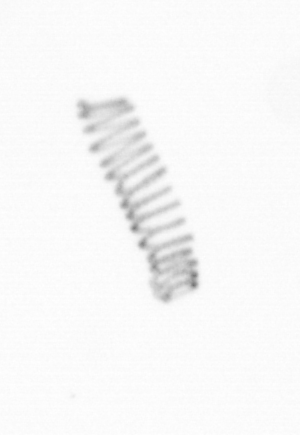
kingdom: Chromista
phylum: Ochrophyta
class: Bacillariophyceae
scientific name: Bacillariophyceae
